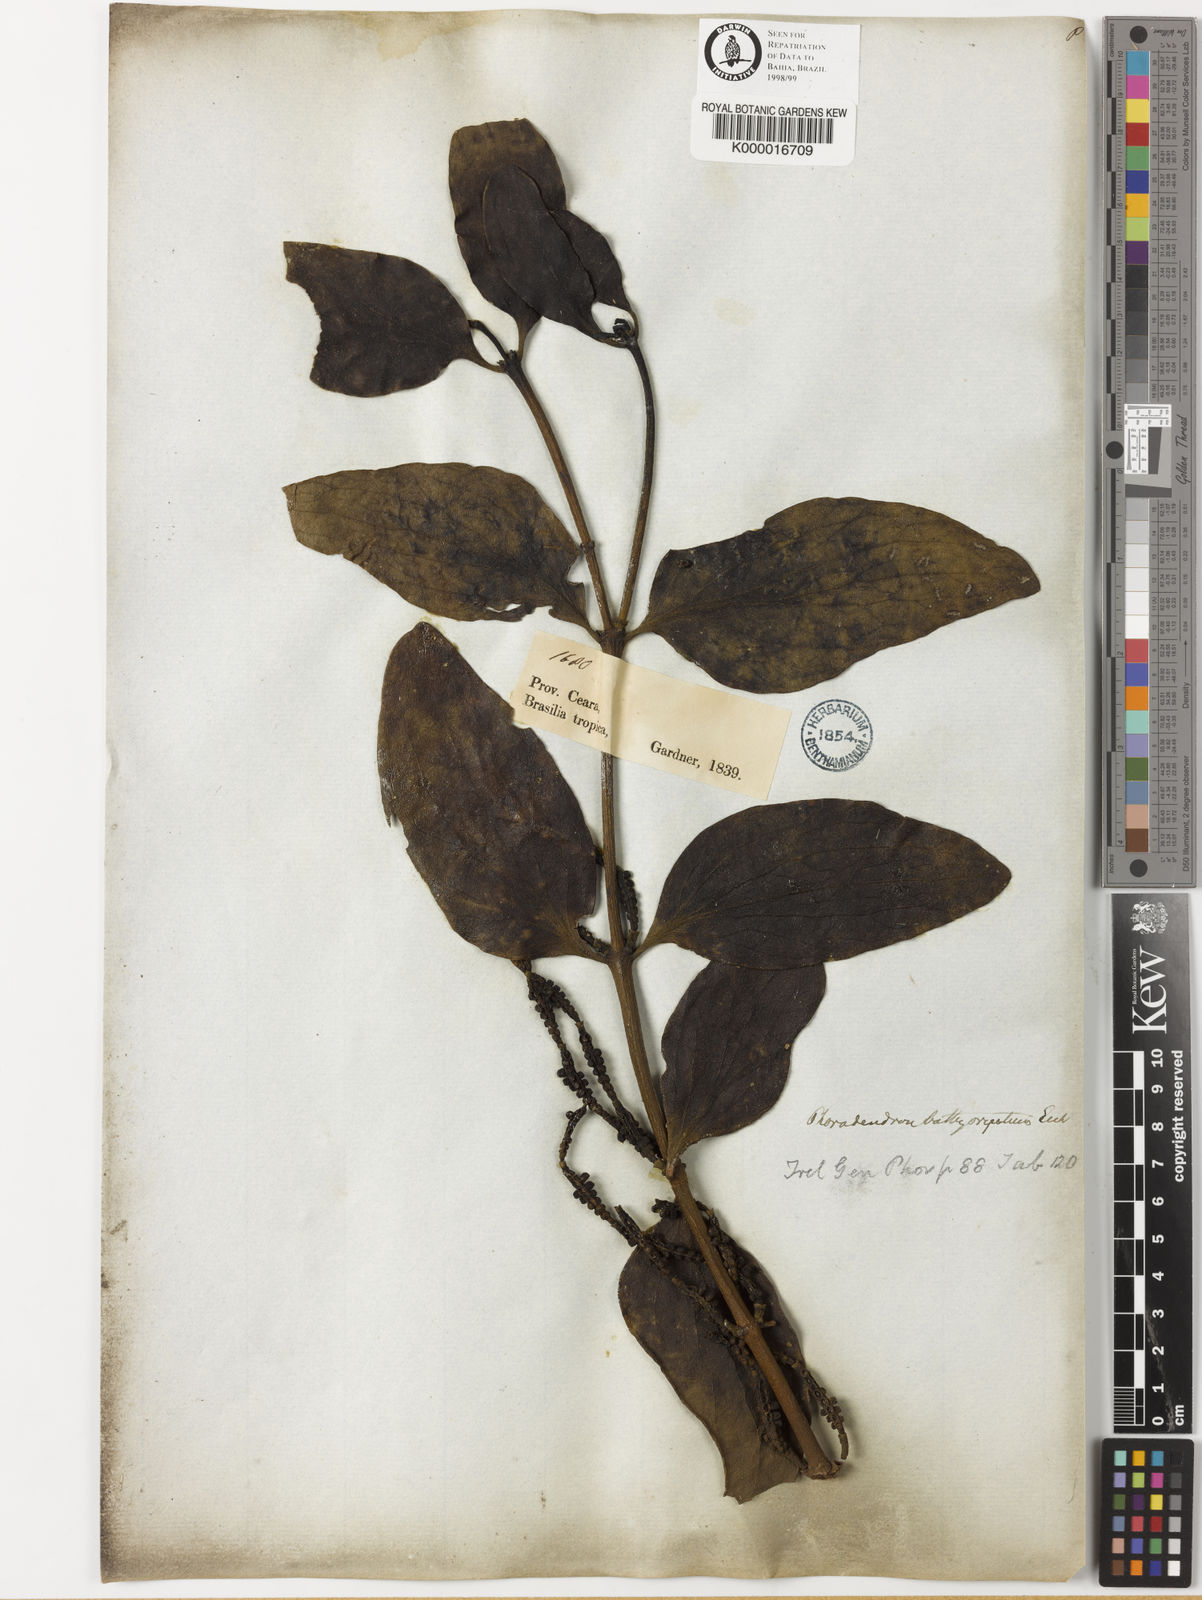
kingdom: Plantae
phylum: Tracheophyta
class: Magnoliopsida
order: Santalales
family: Viscaceae
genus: Phoradendron
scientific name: Phoradendron bathyoryctum
